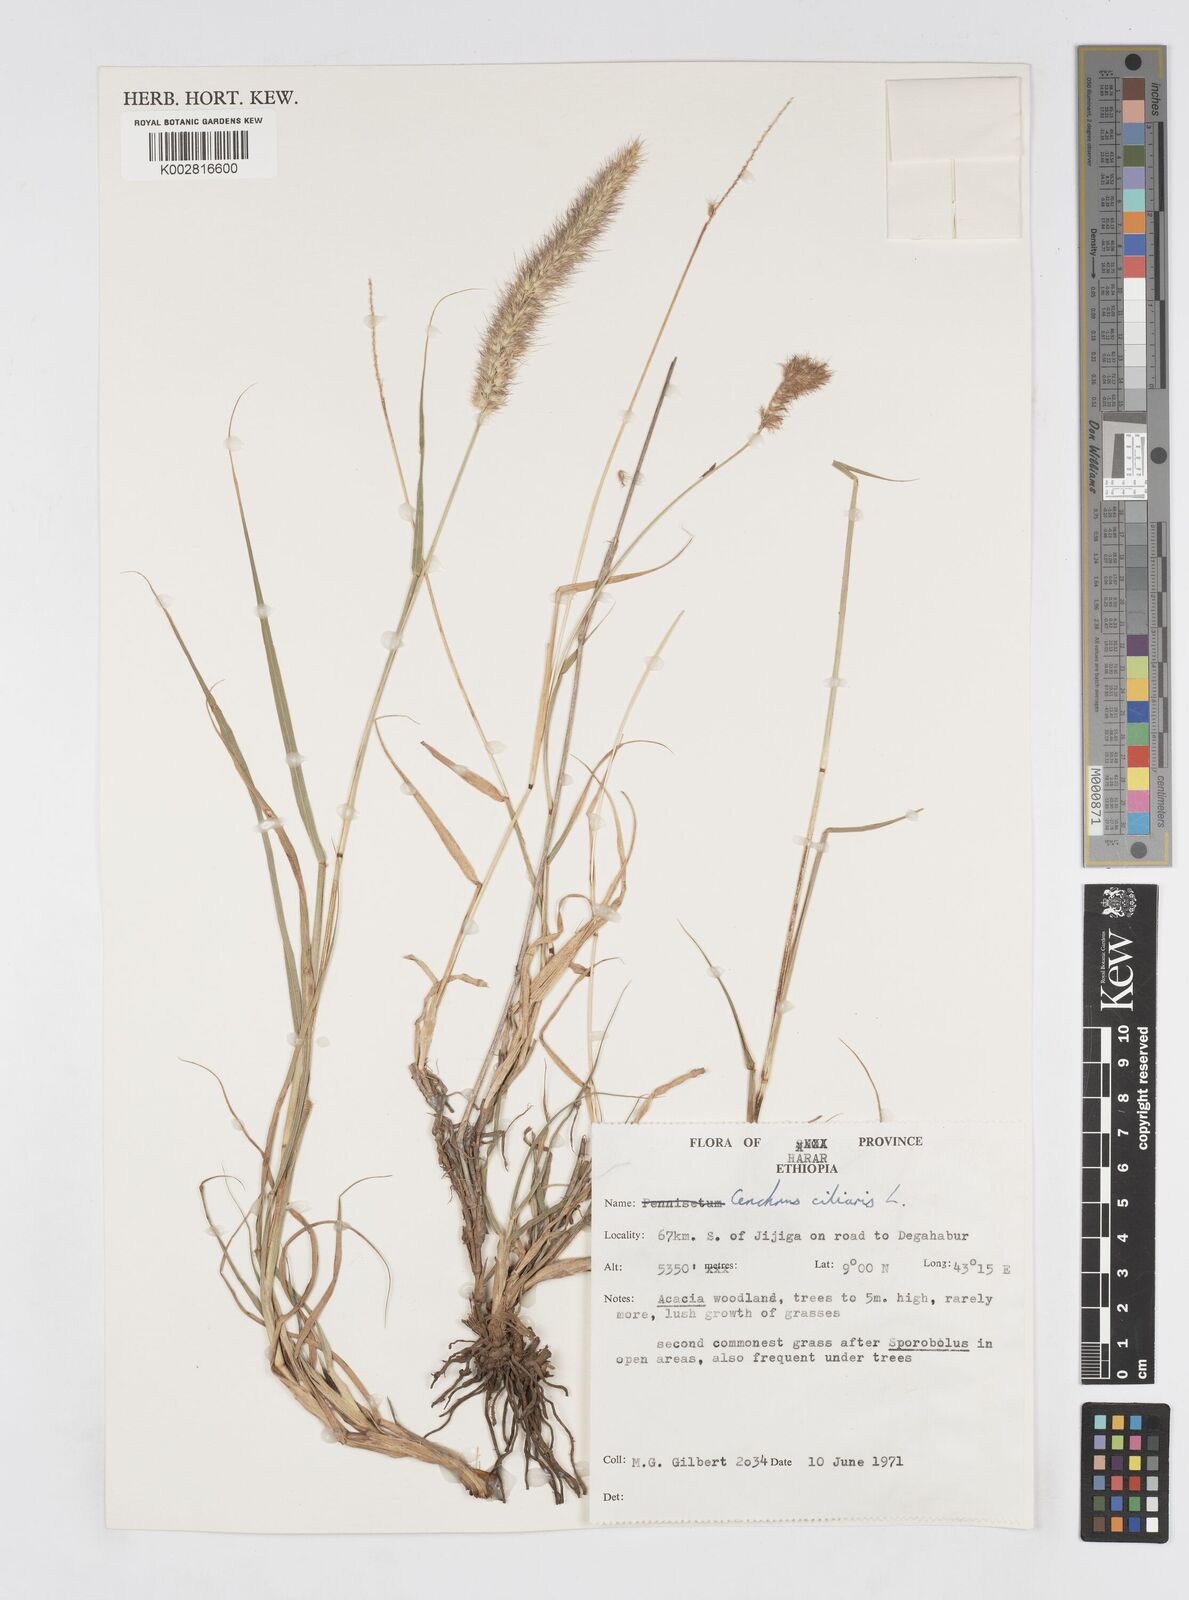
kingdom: Plantae
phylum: Tracheophyta
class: Liliopsida
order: Poales
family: Poaceae
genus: Cenchrus
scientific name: Cenchrus ciliaris
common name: Buffelgrass
